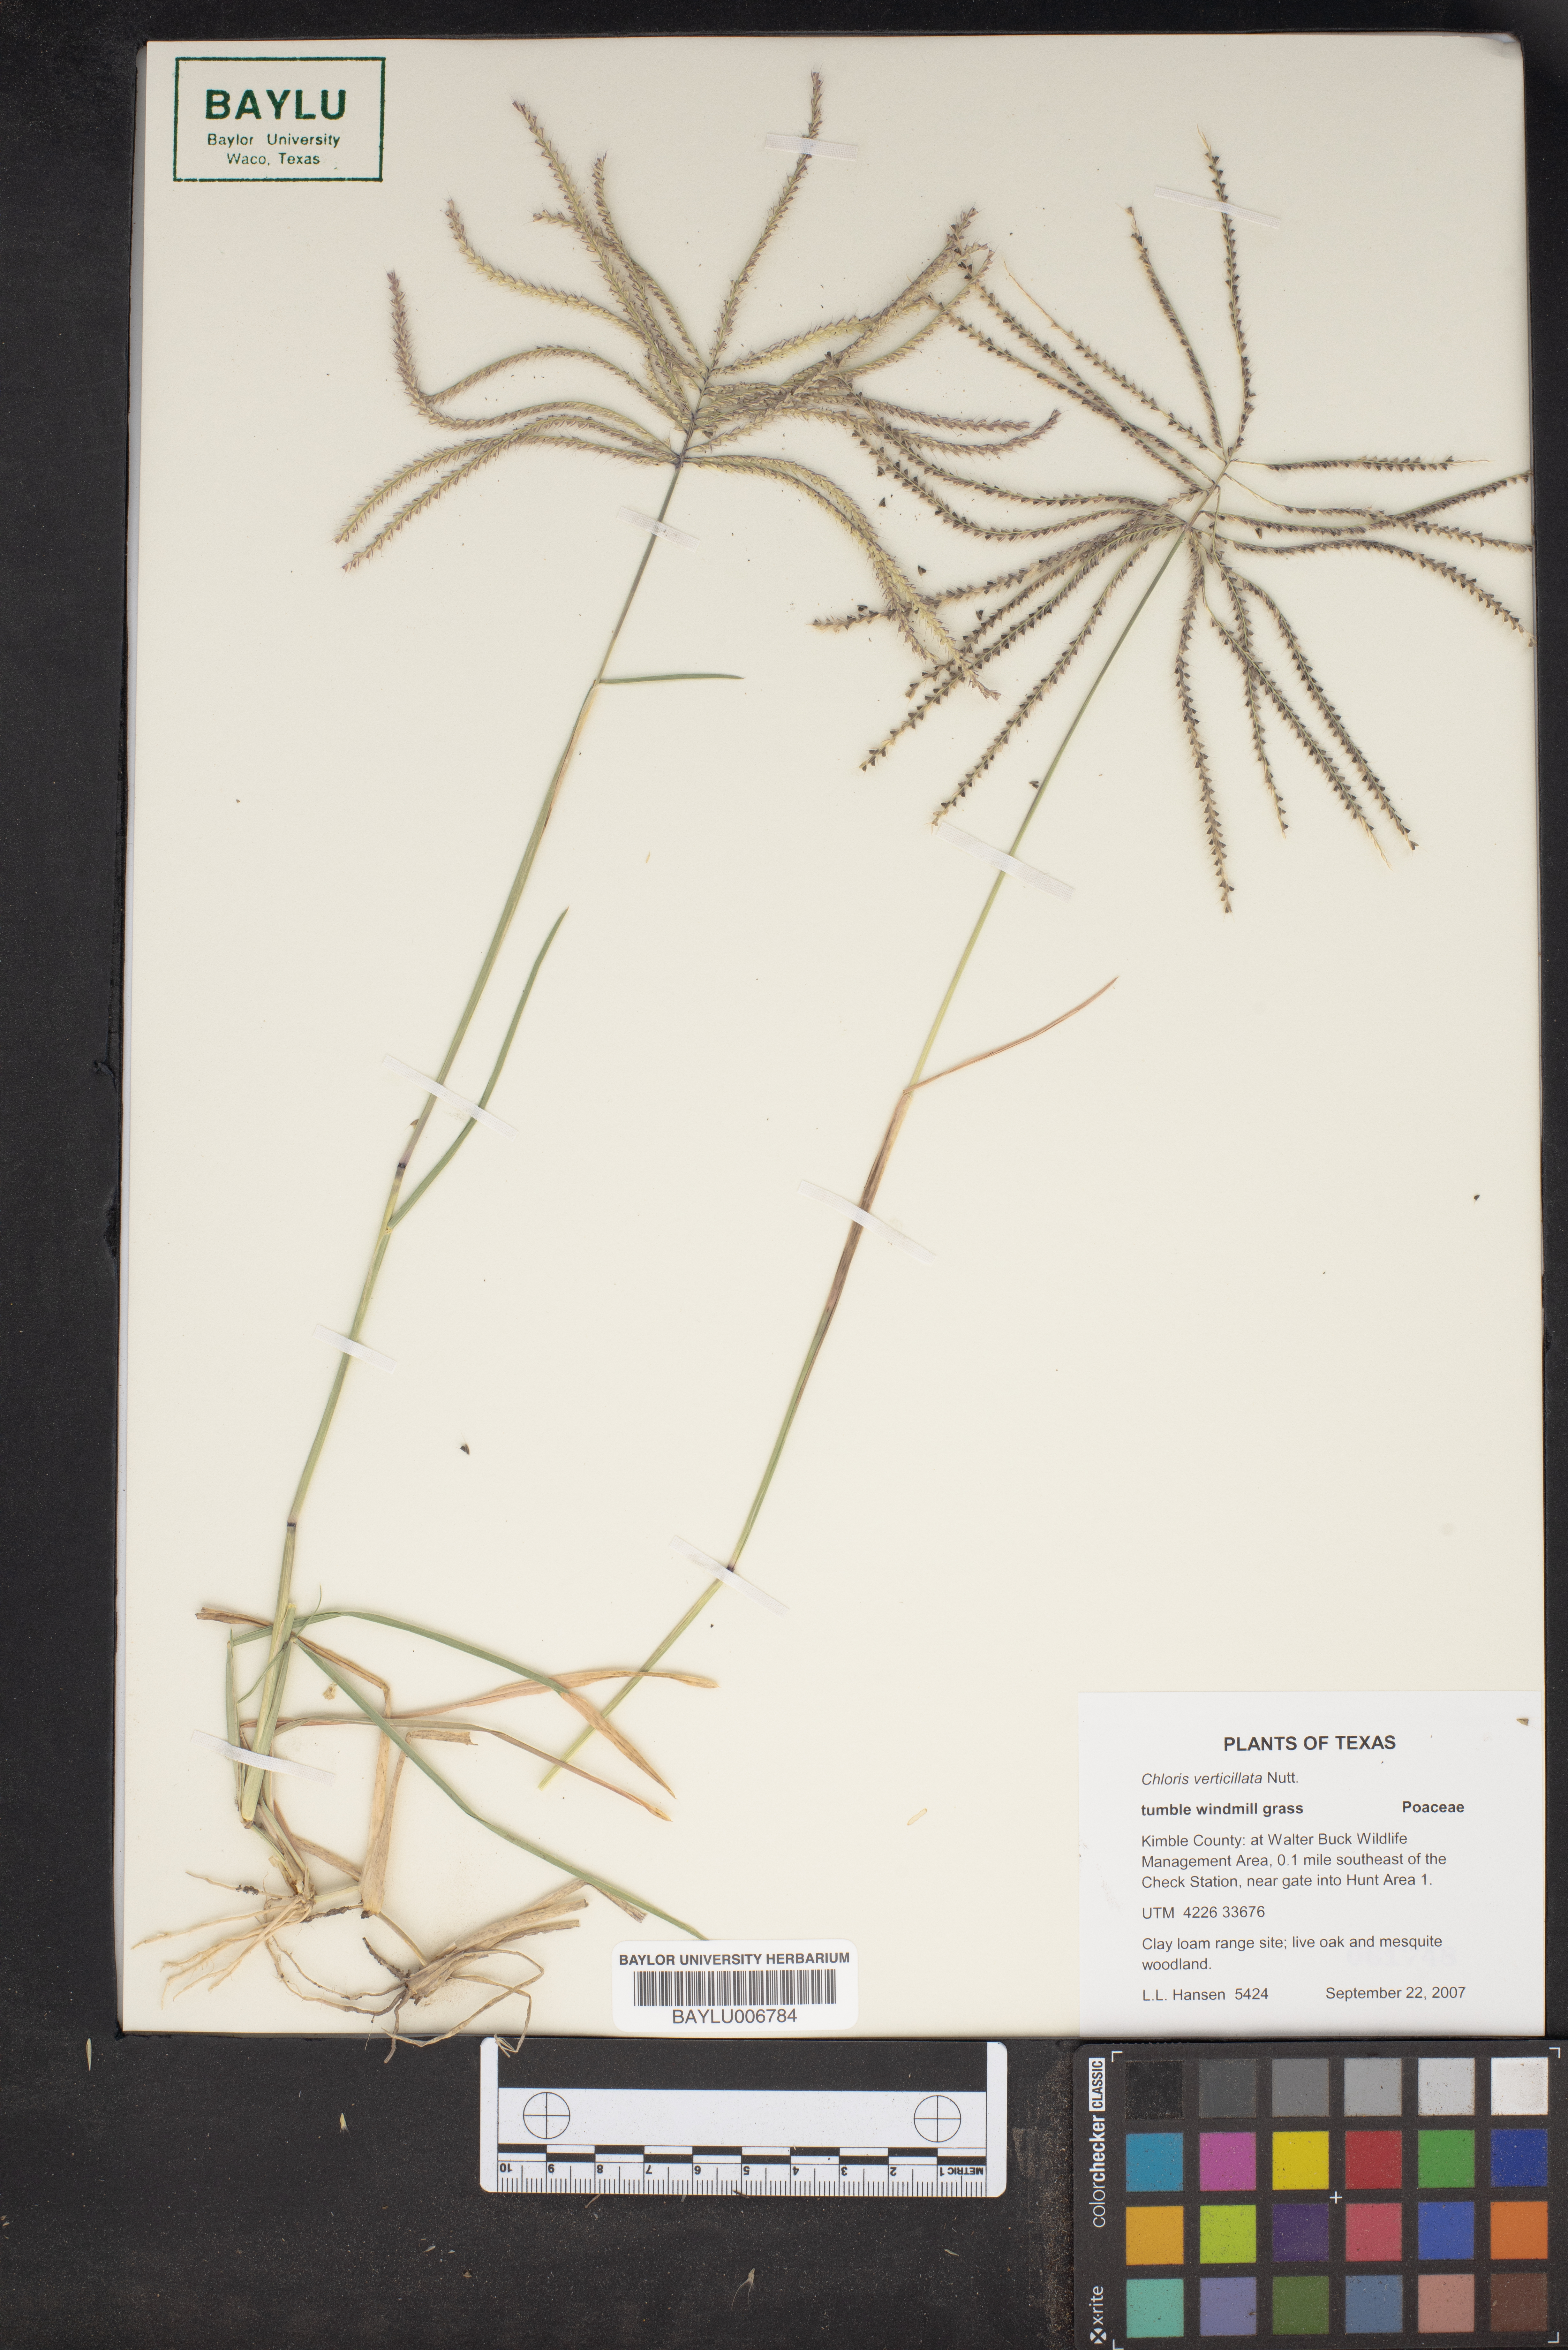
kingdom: Plantae
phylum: Tracheophyta
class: Liliopsida
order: Poales
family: Poaceae
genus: Chloris
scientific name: Chloris verticillata
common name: Tumble windmill grass
